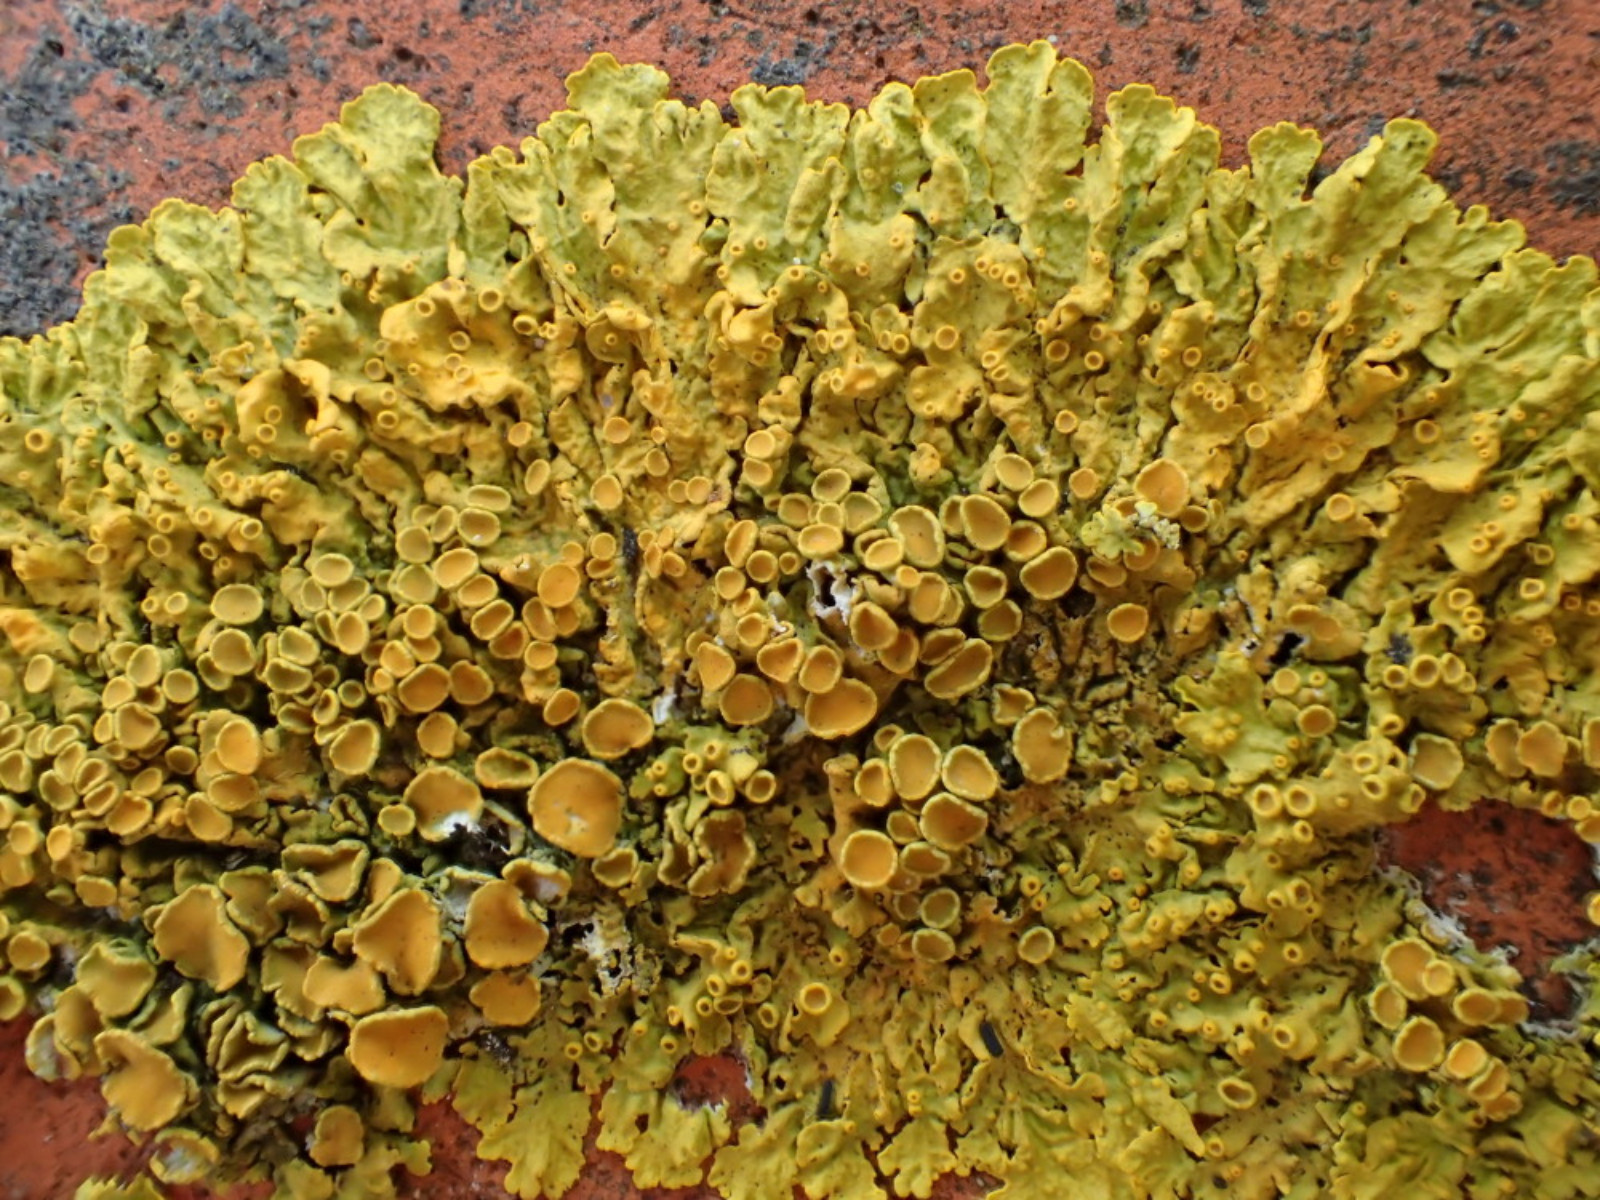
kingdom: Fungi
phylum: Ascomycota
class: Lecanoromycetes
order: Teloschistales
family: Teloschistaceae
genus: Xanthoria
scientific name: Xanthoria parietina
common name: almindelig væggelav
